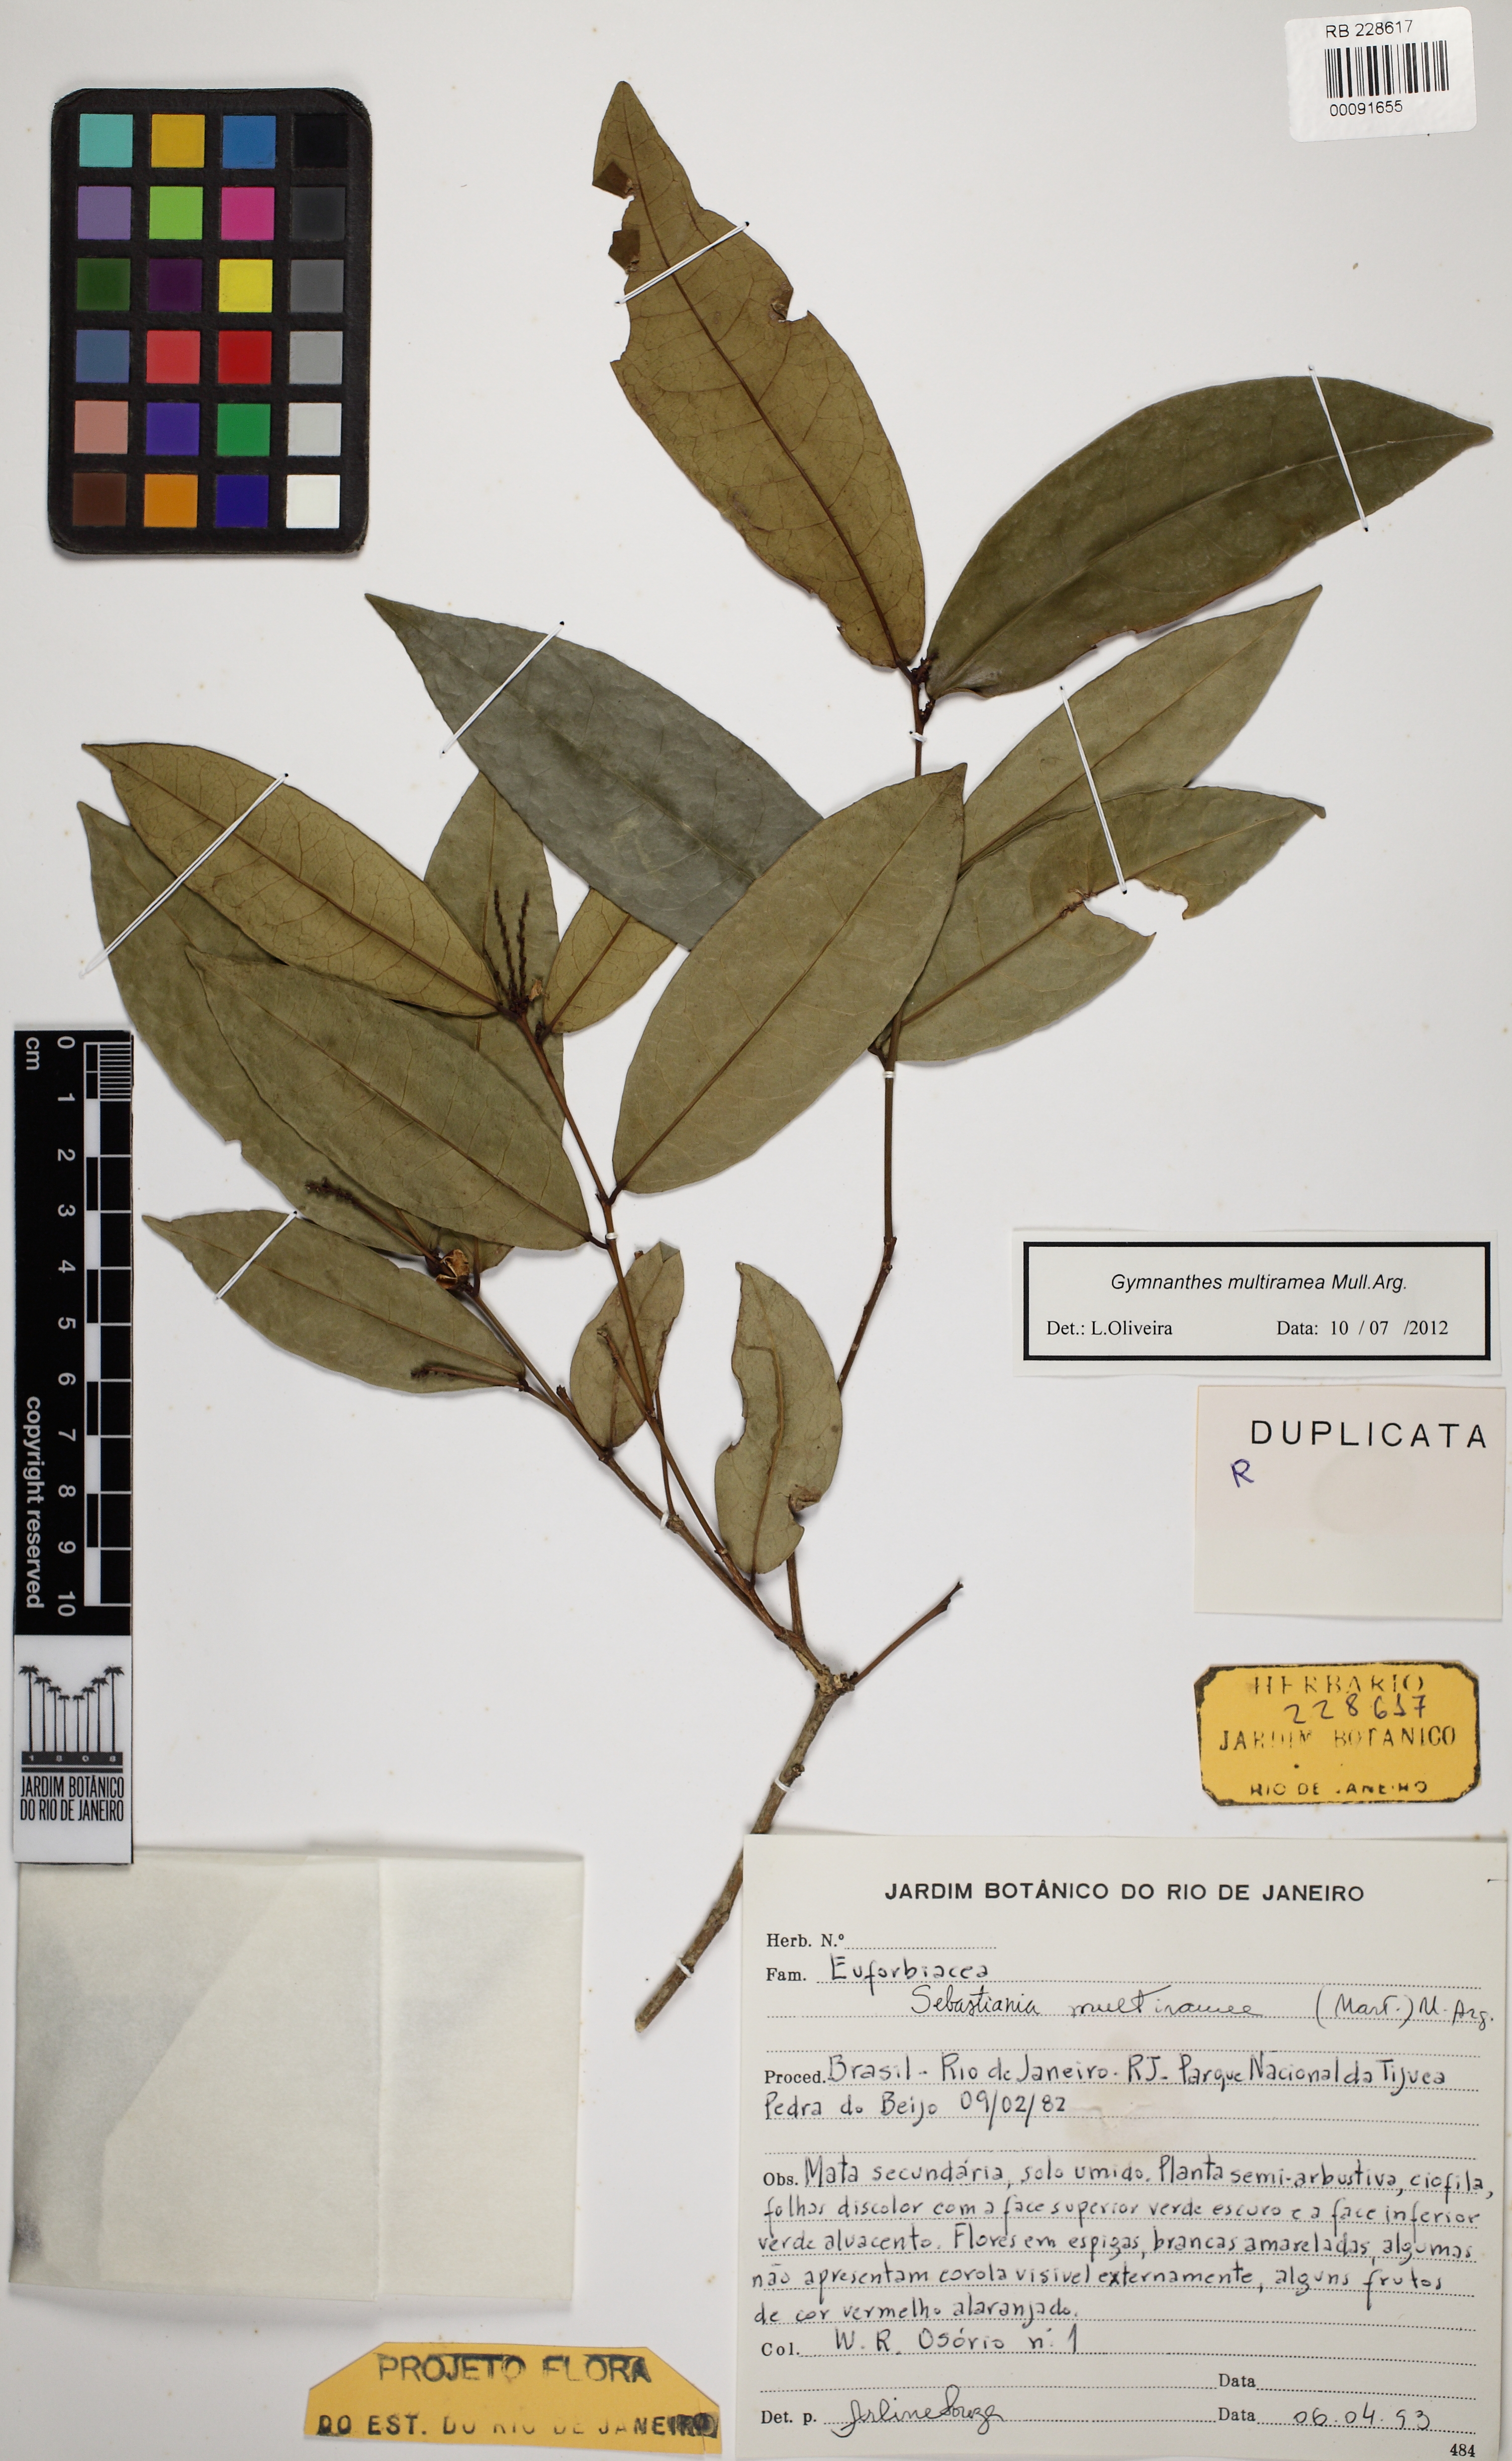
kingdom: Plantae
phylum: Tracheophyta
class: Magnoliopsida
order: Malpighiales
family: Euphorbiaceae
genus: Gymnanthes
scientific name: Gymnanthes glabrata
